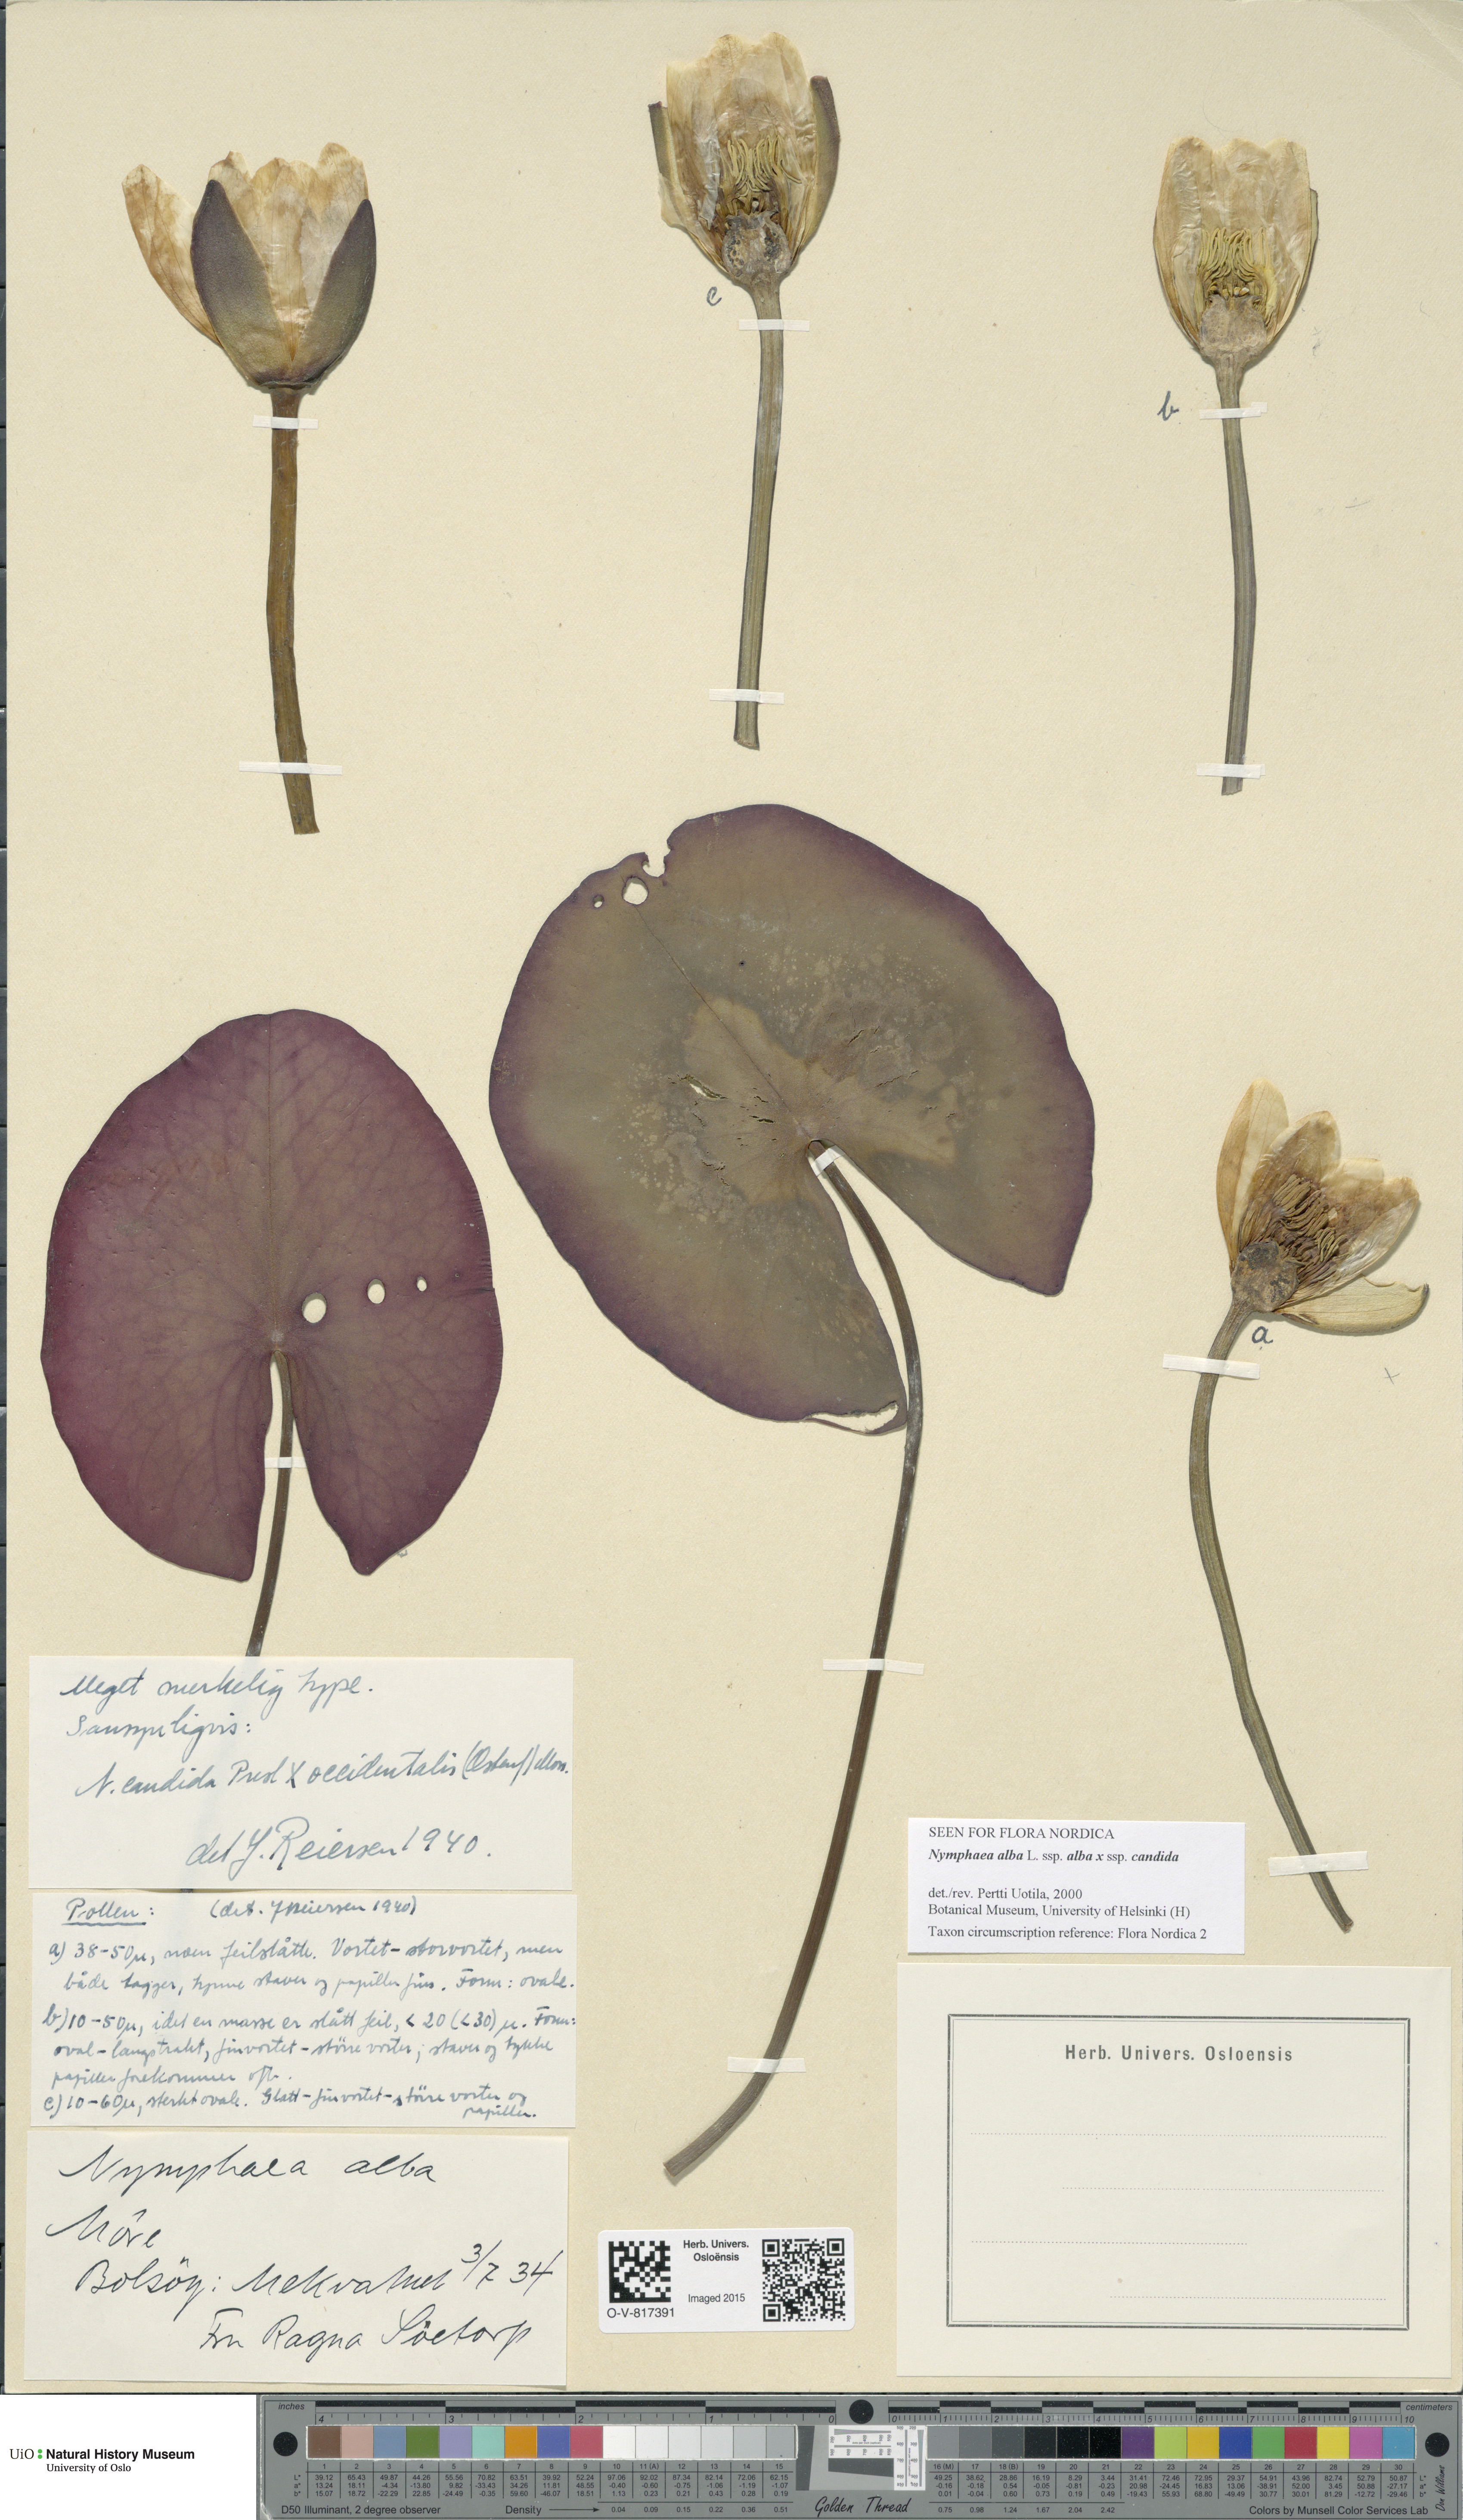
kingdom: Plantae
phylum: Tracheophyta
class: Magnoliopsida
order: Nymphaeales
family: Nymphaeaceae
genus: Nymphaea
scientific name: Nymphaea
